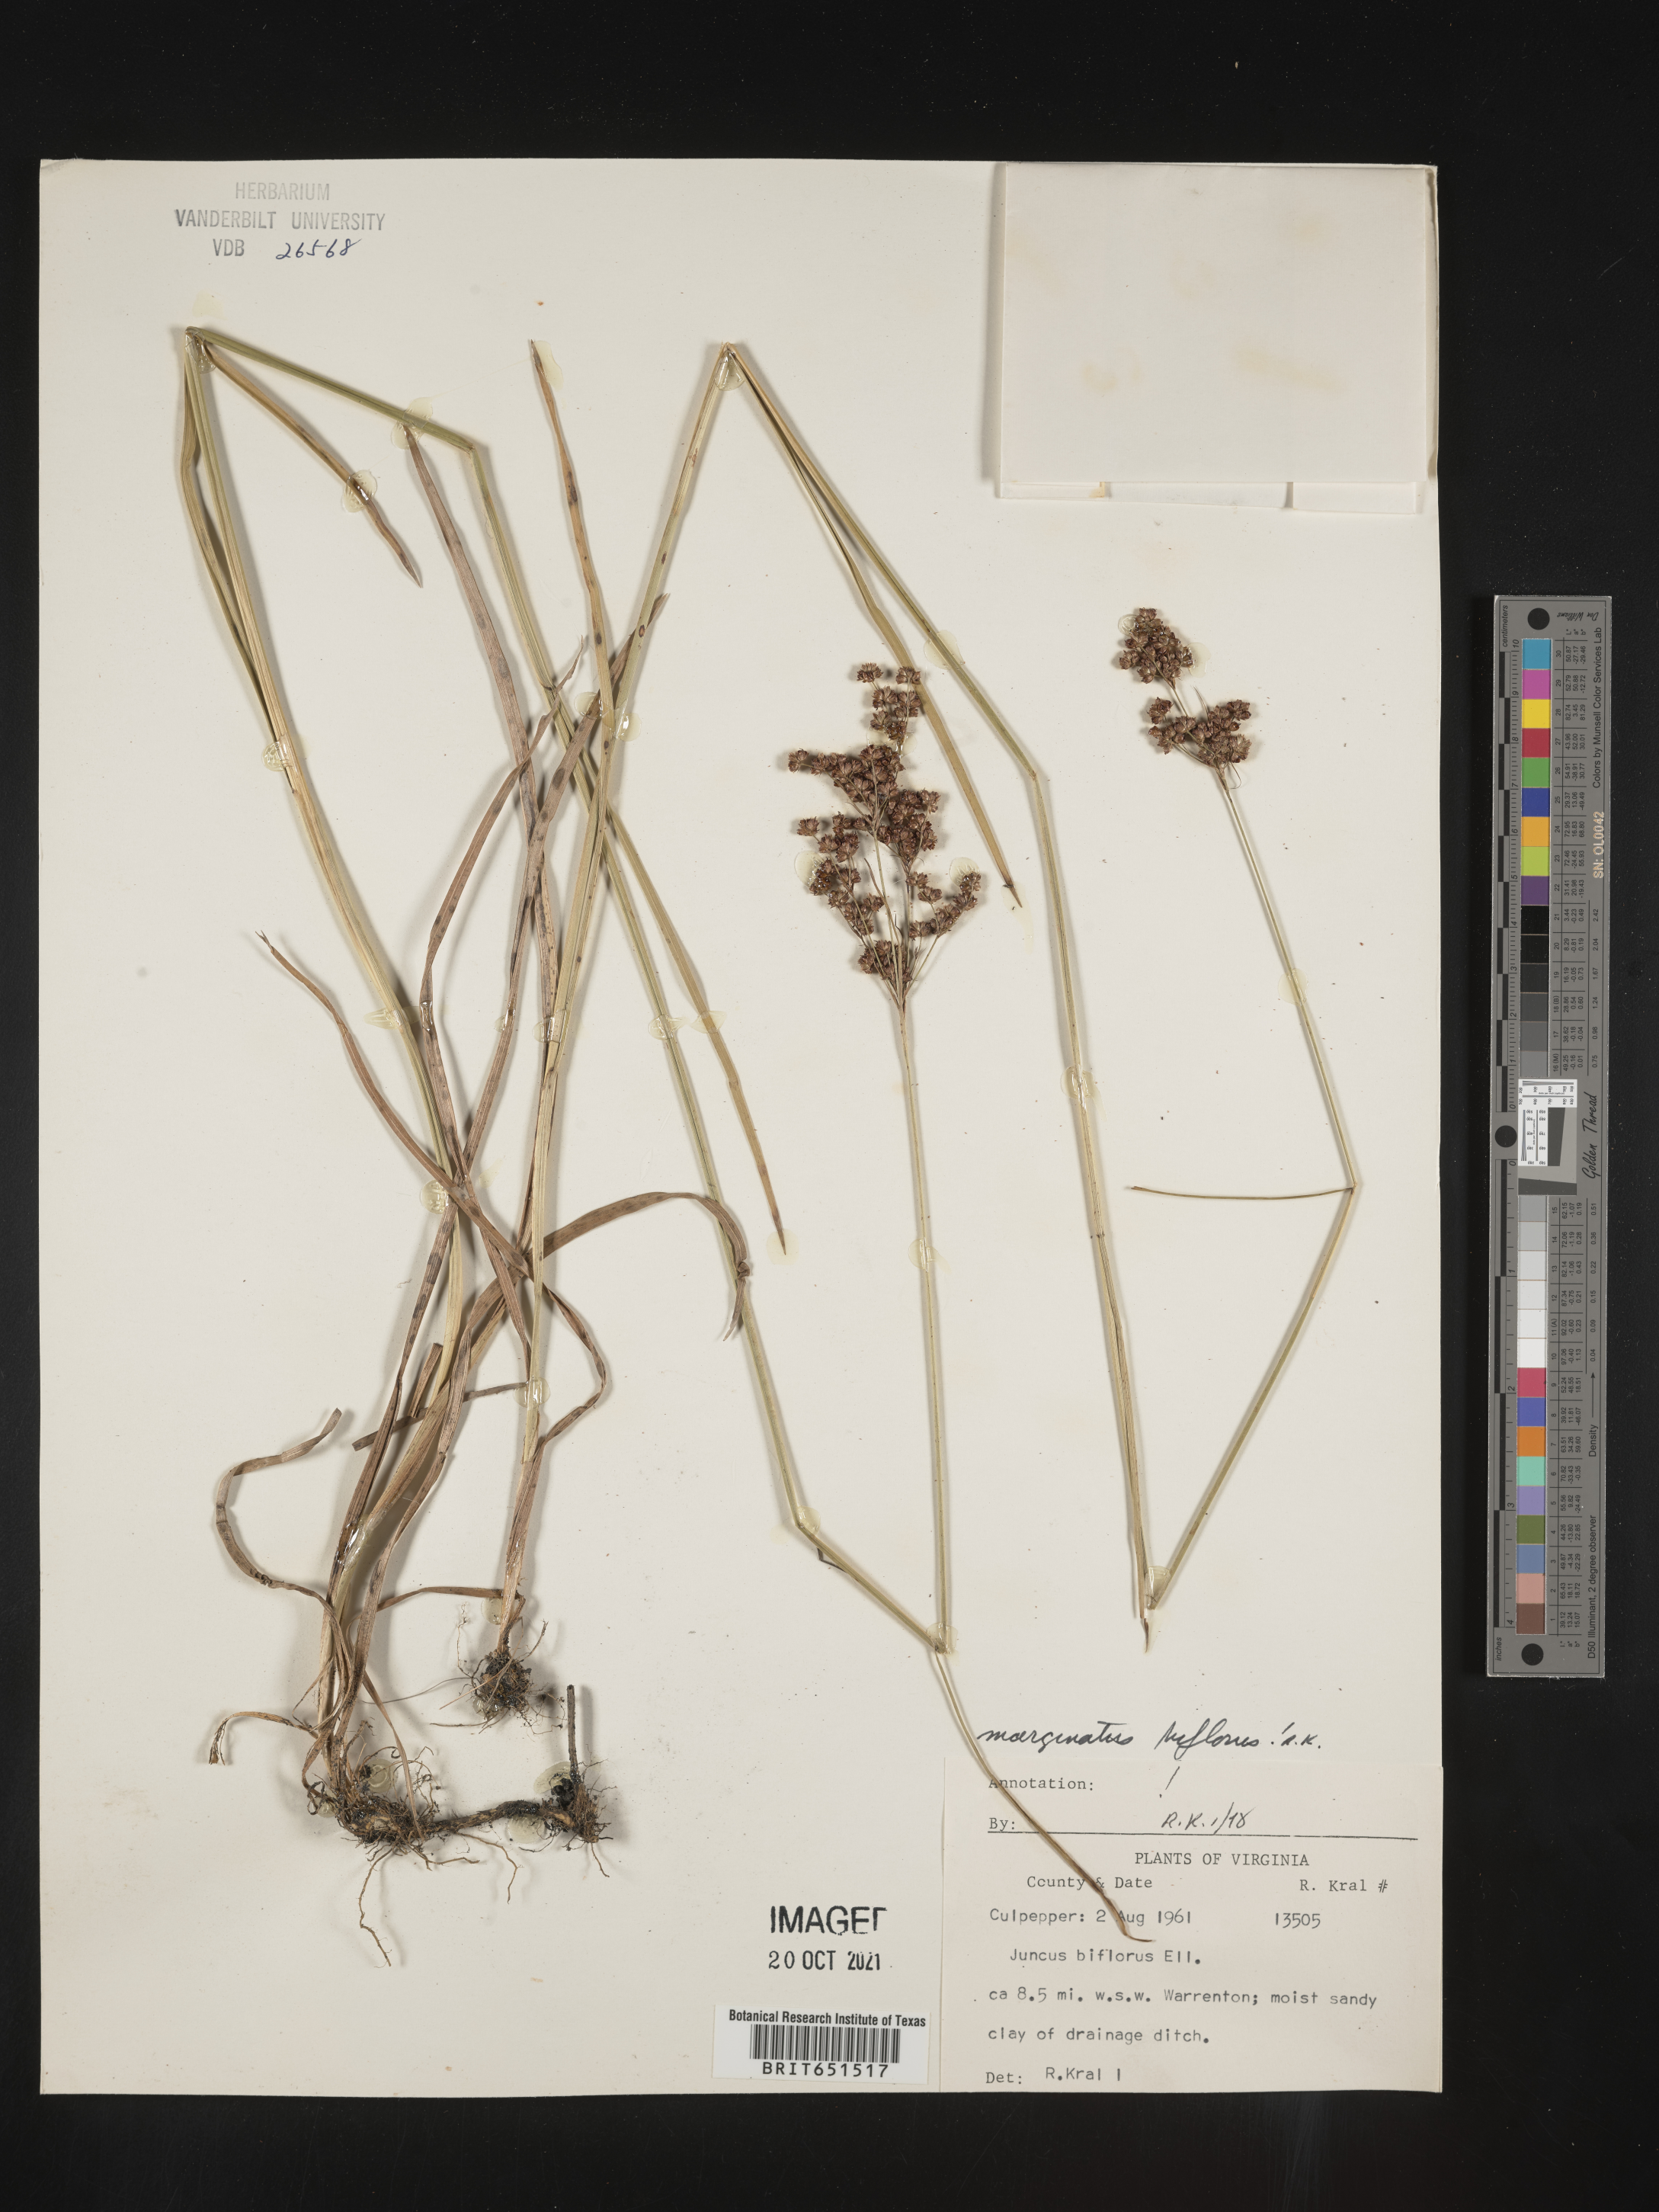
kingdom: Plantae
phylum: Tracheophyta
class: Liliopsida
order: Poales
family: Juncaceae
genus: Juncus
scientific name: Juncus biflorus
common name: Two-flowered rush
